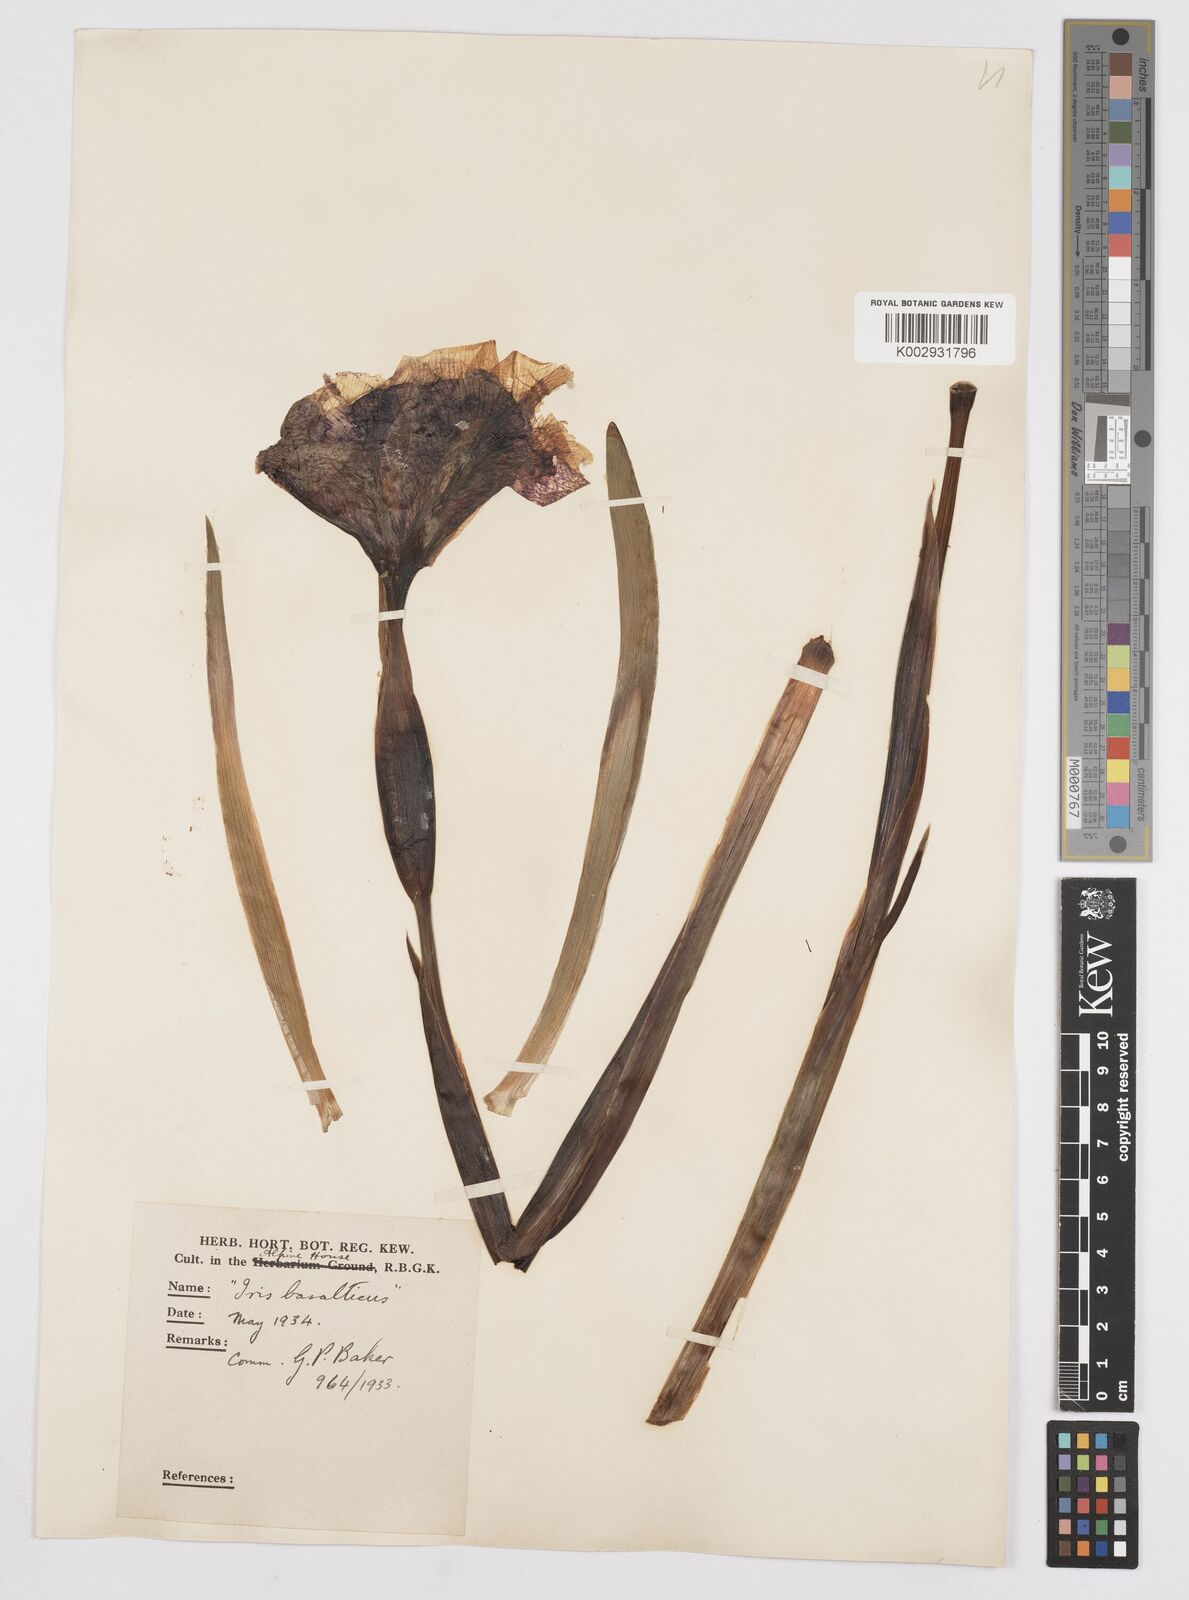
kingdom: Plantae
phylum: Tracheophyta
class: Liliopsida
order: Asparagales
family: Iridaceae
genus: Iris
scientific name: Iris basaltica
